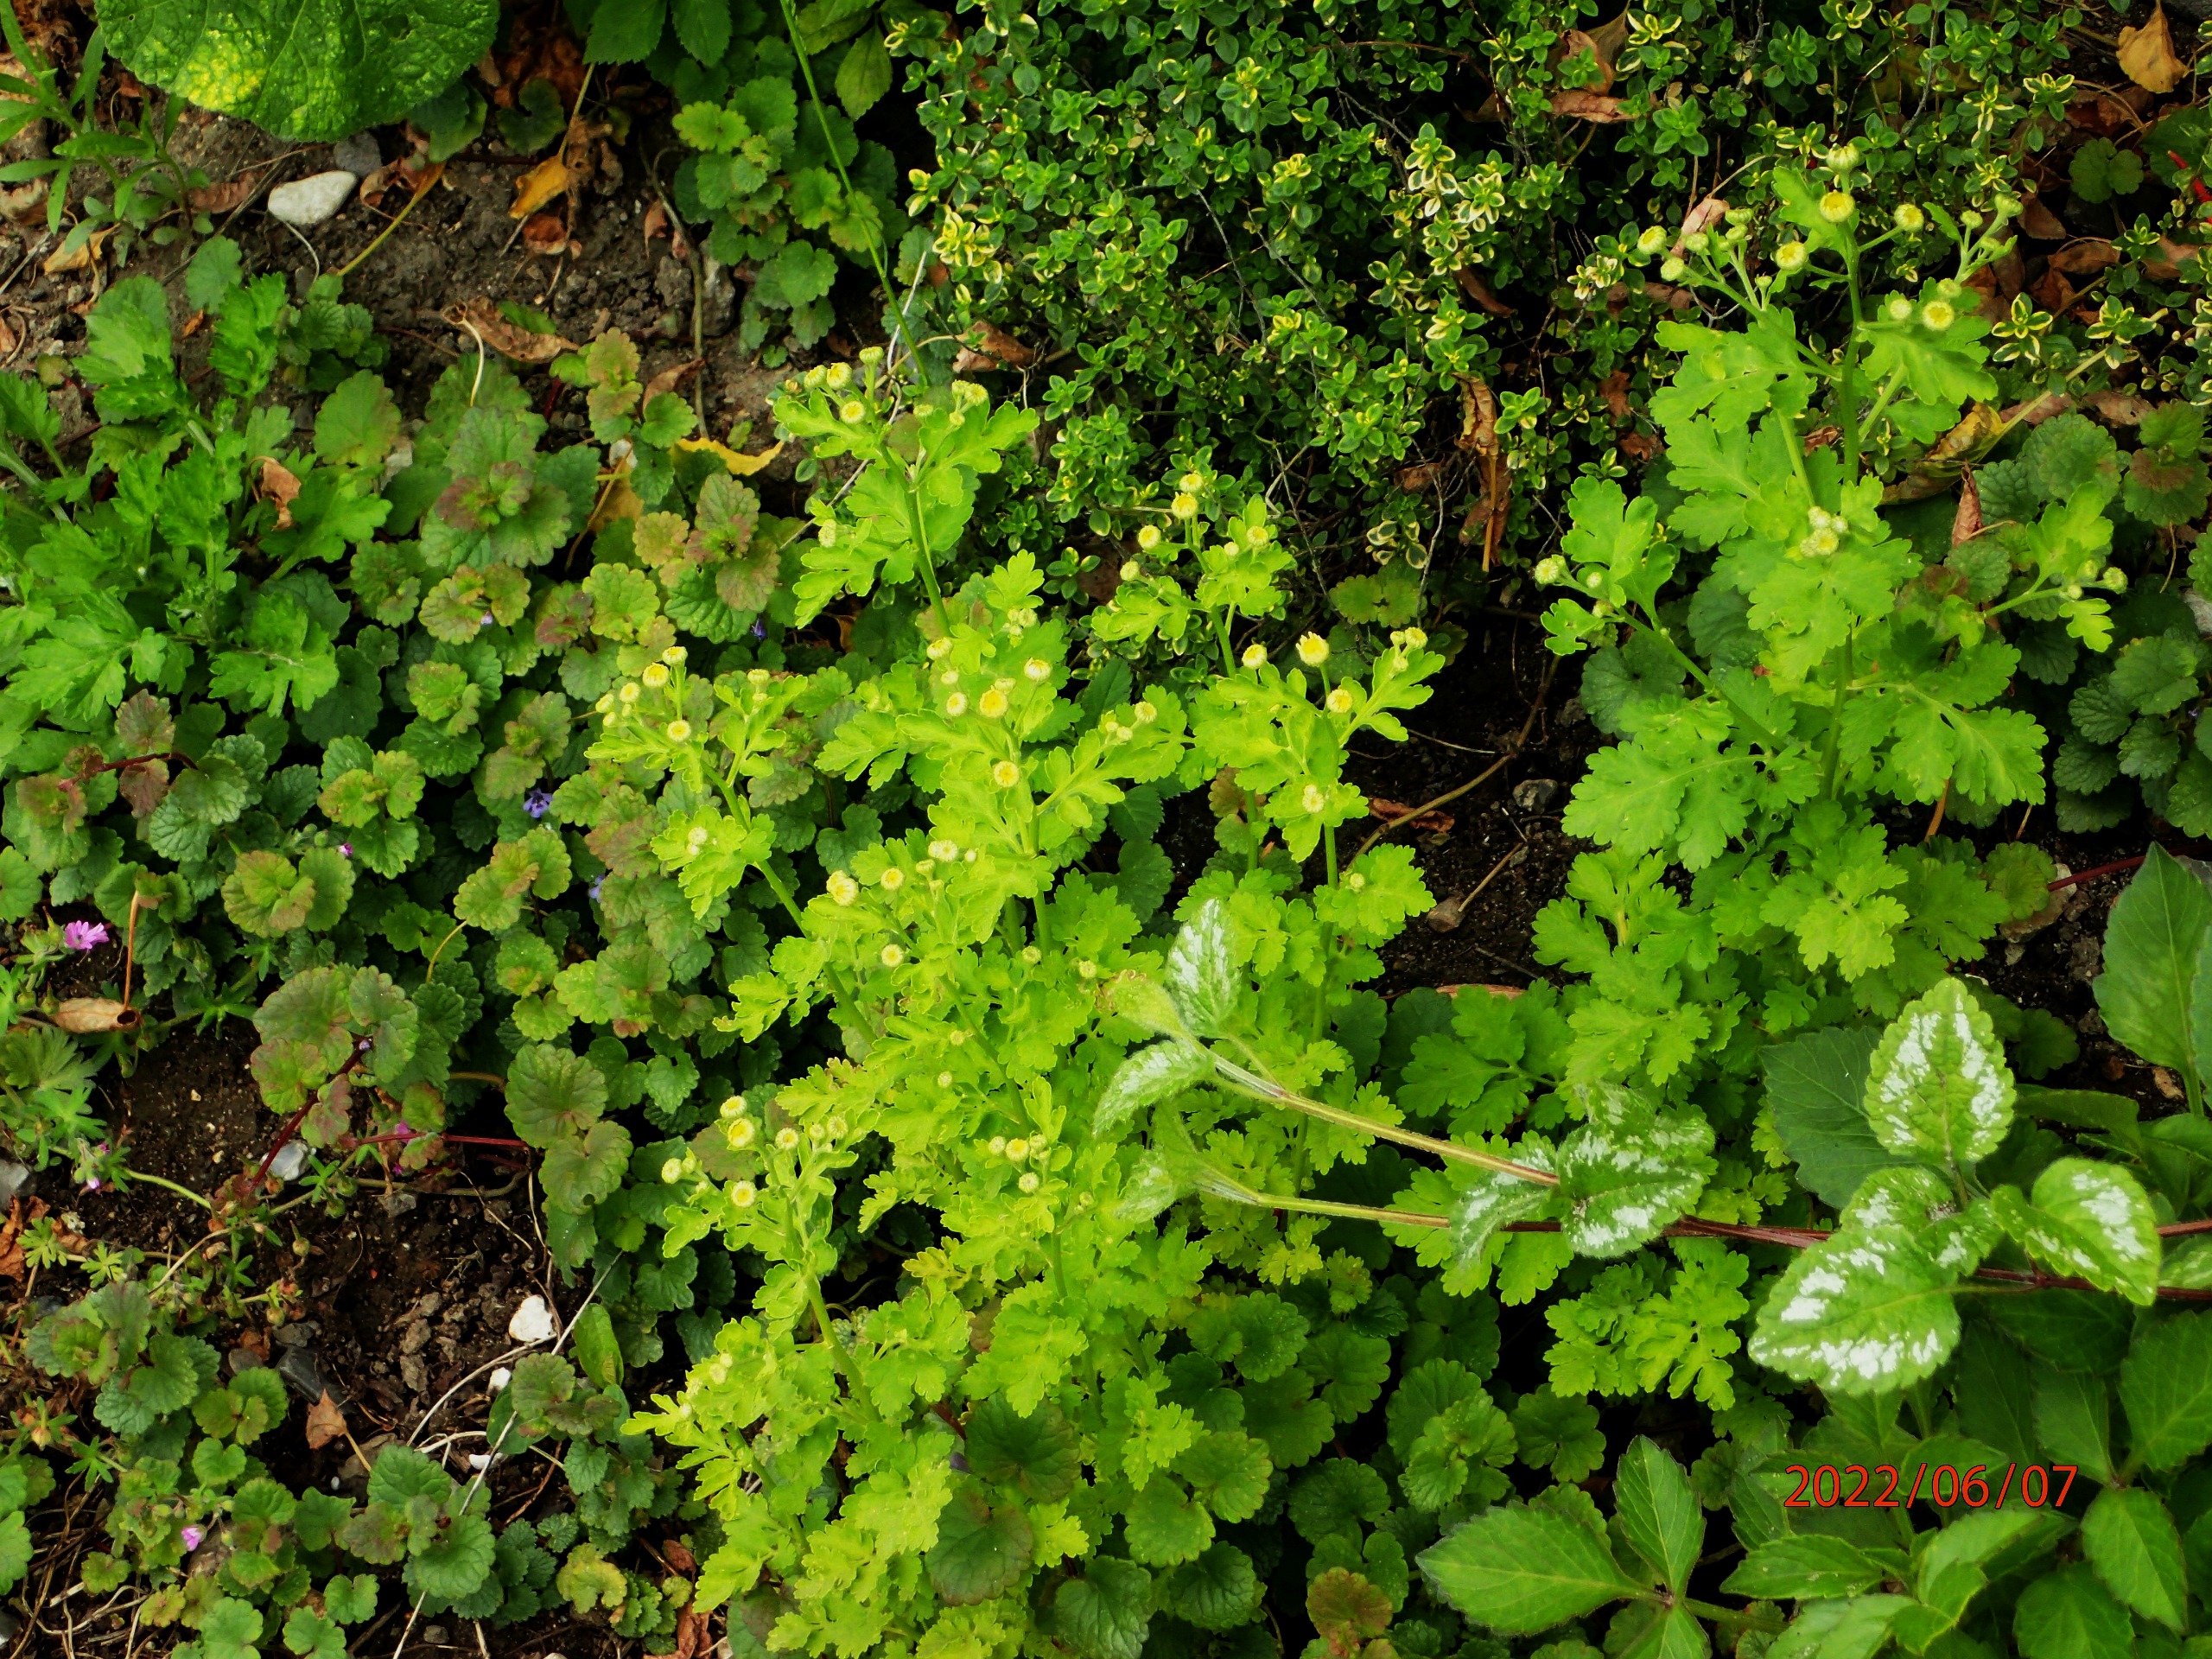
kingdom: Plantae
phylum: Tracheophyta
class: Magnoliopsida
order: Asterales
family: Asteraceae
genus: Tanacetum
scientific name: Tanacetum parthenium
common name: Matrem
